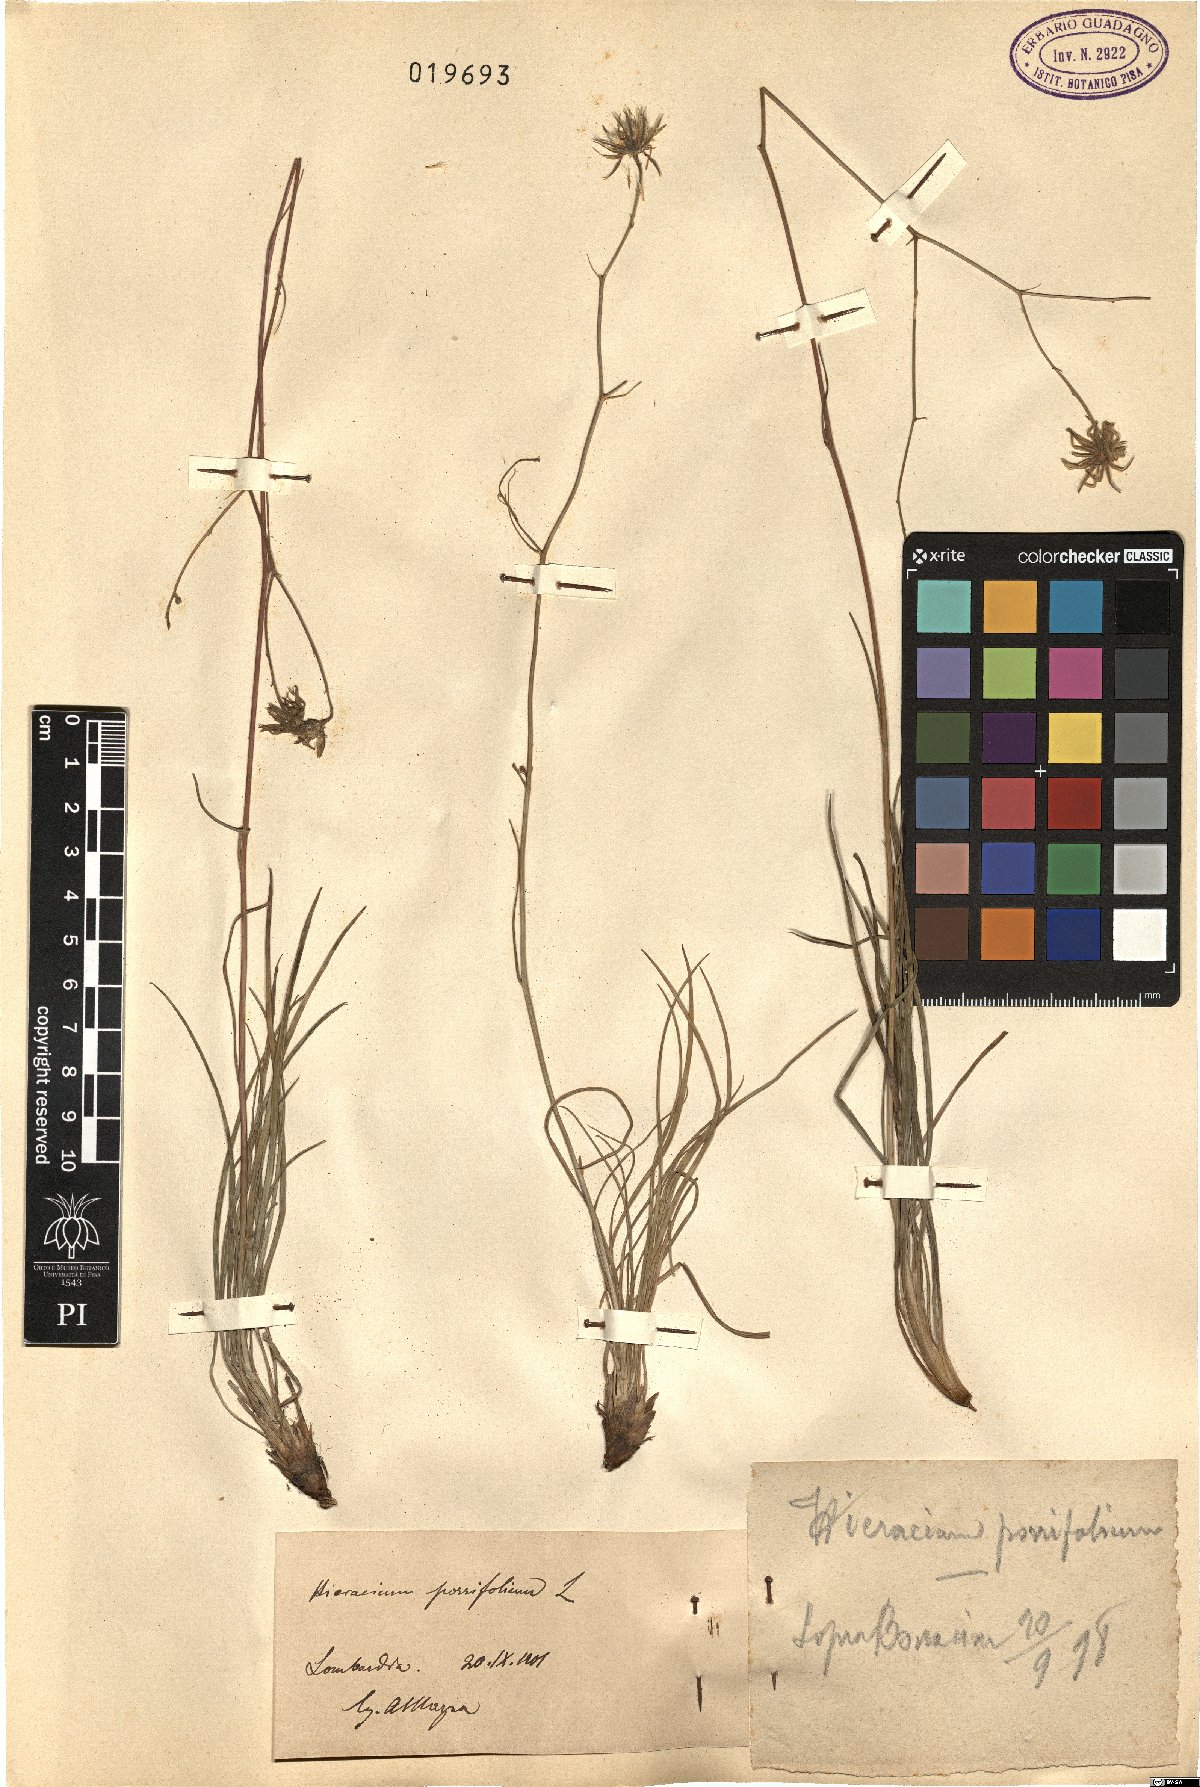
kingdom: Plantae
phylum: Tracheophyta
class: Magnoliopsida
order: Asterales
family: Asteraceae
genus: Hieracium
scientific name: Hieracium porrifolium
